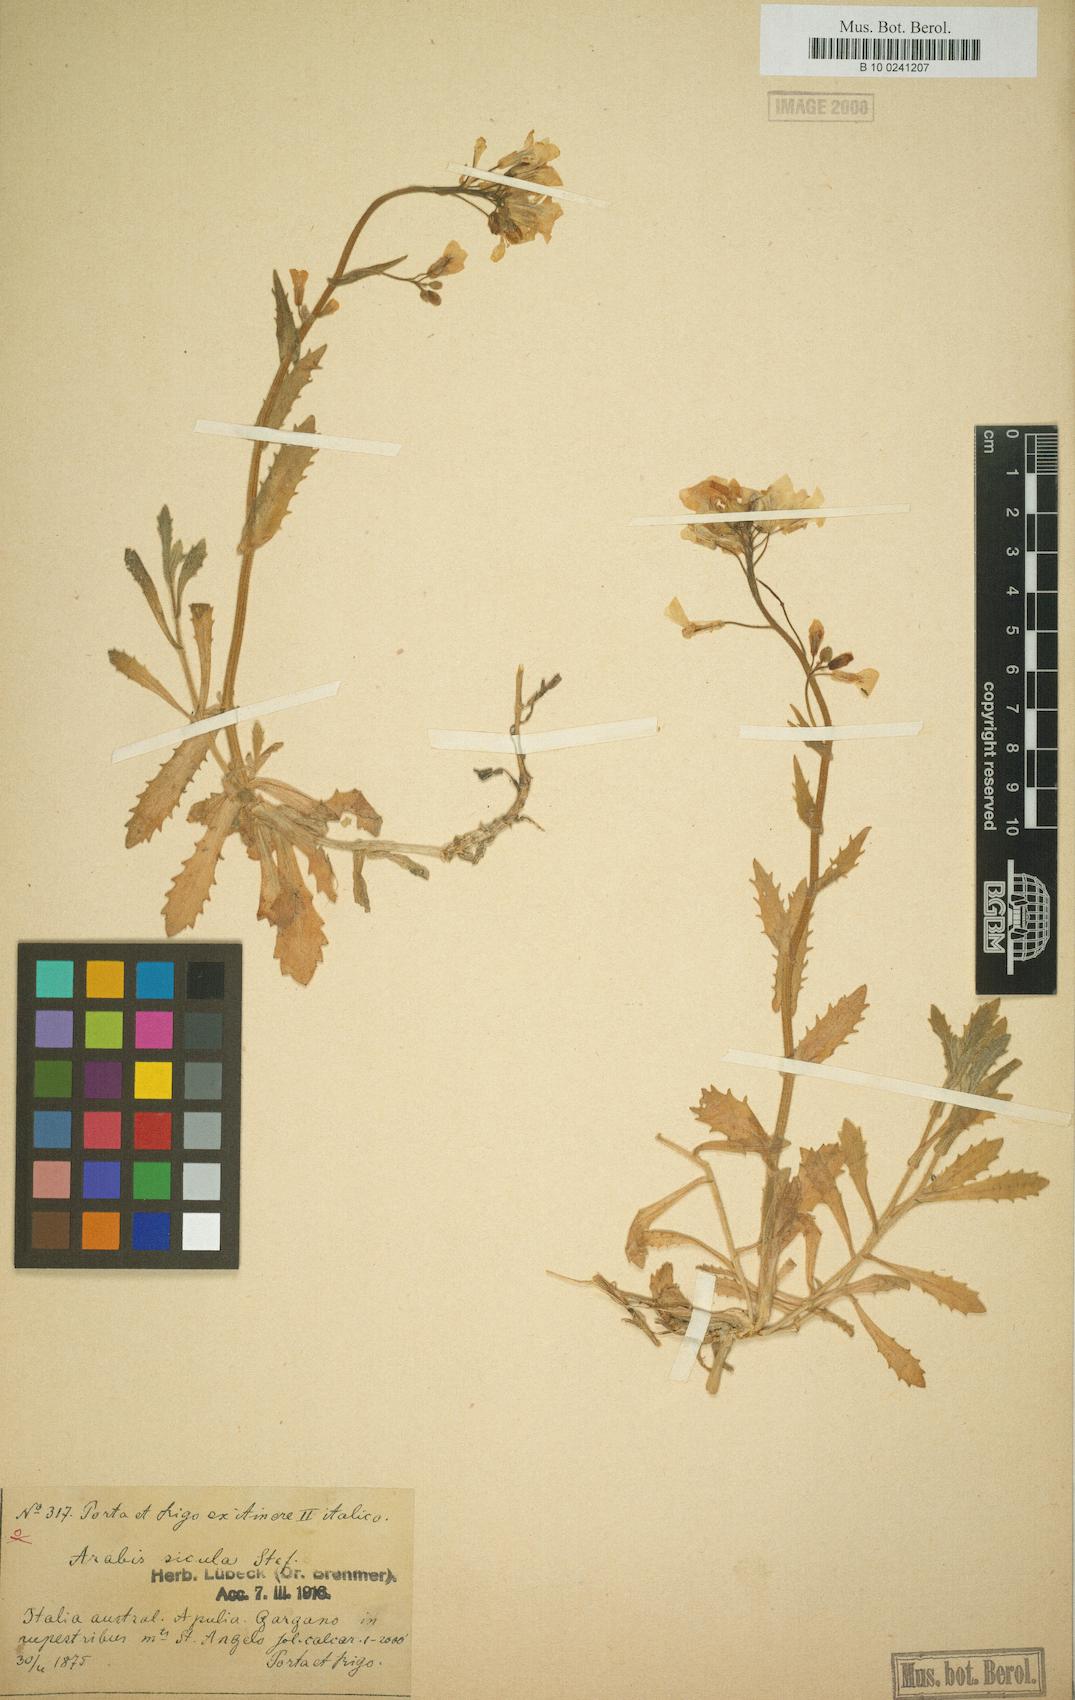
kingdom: Plantae
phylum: Tracheophyta
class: Magnoliopsida
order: Brassicales
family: Brassicaceae
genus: Arabis
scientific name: Arabis caucasica
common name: Gray rockcress
